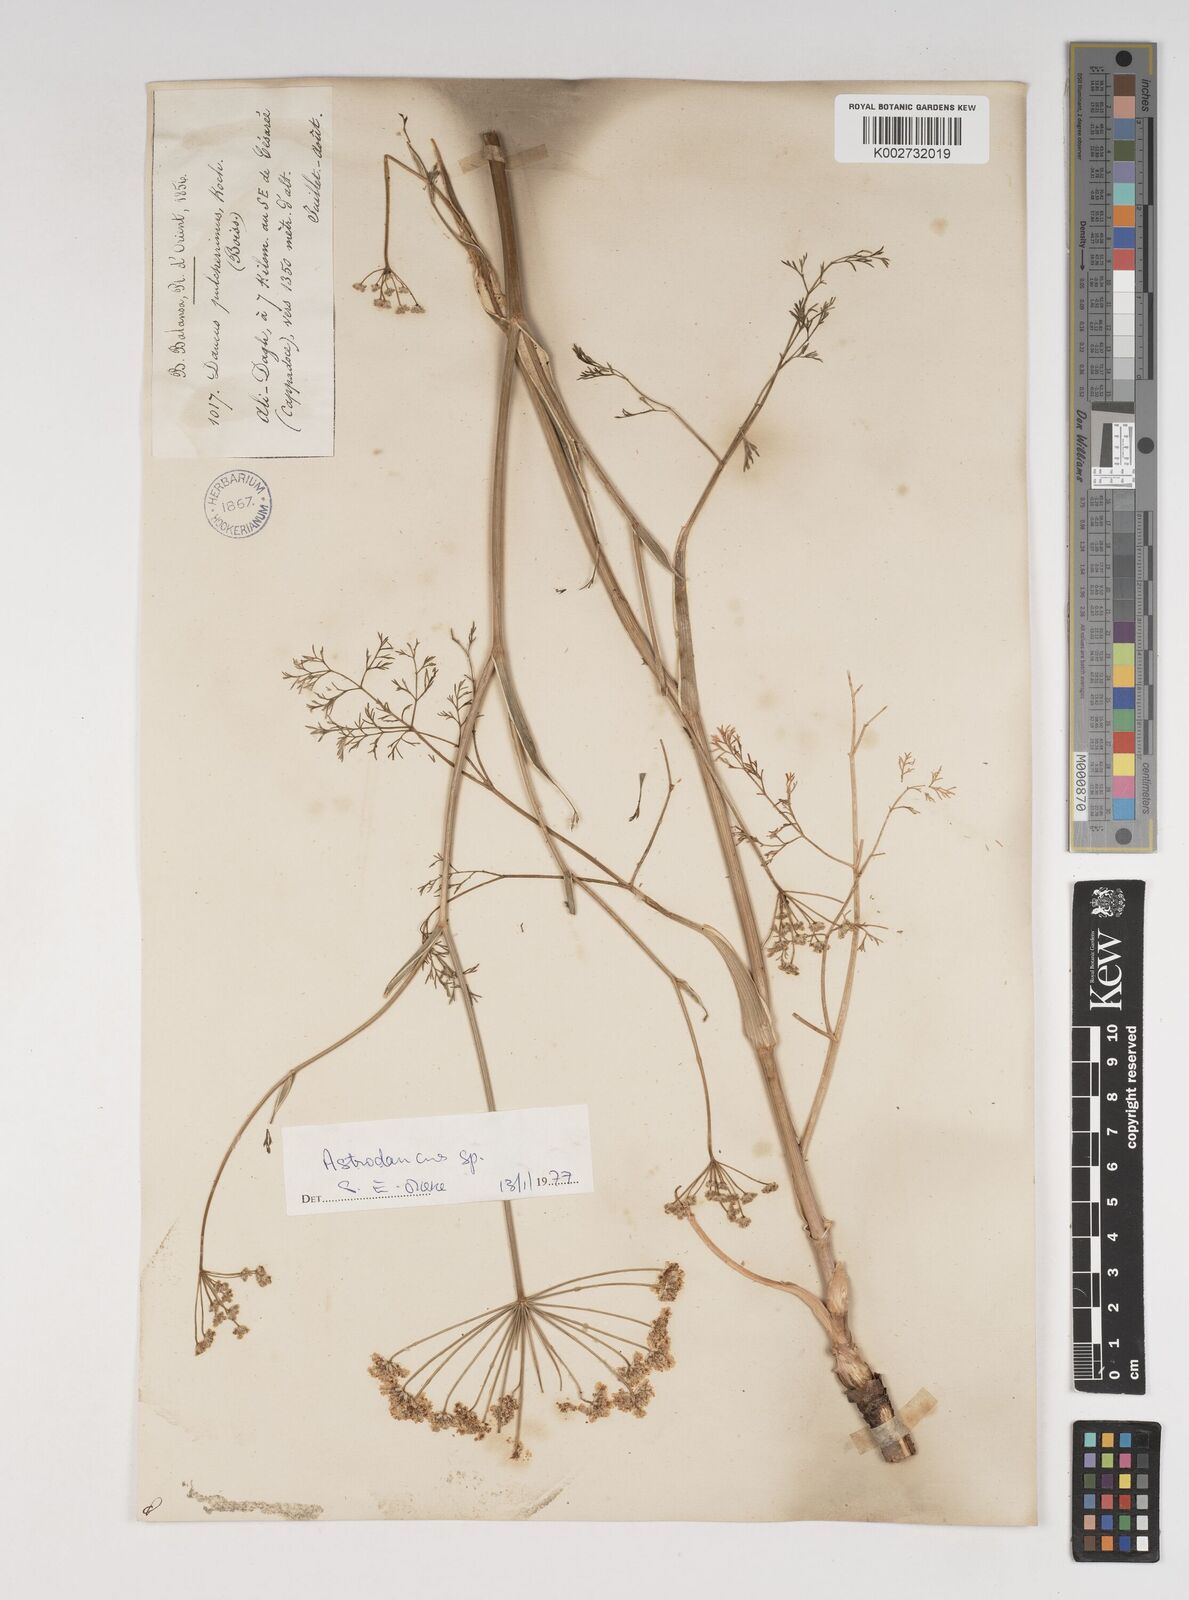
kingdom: Plantae
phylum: Tracheophyta
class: Magnoliopsida
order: Apiales
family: Apiaceae
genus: Astrodaucus
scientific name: Astrodaucus
